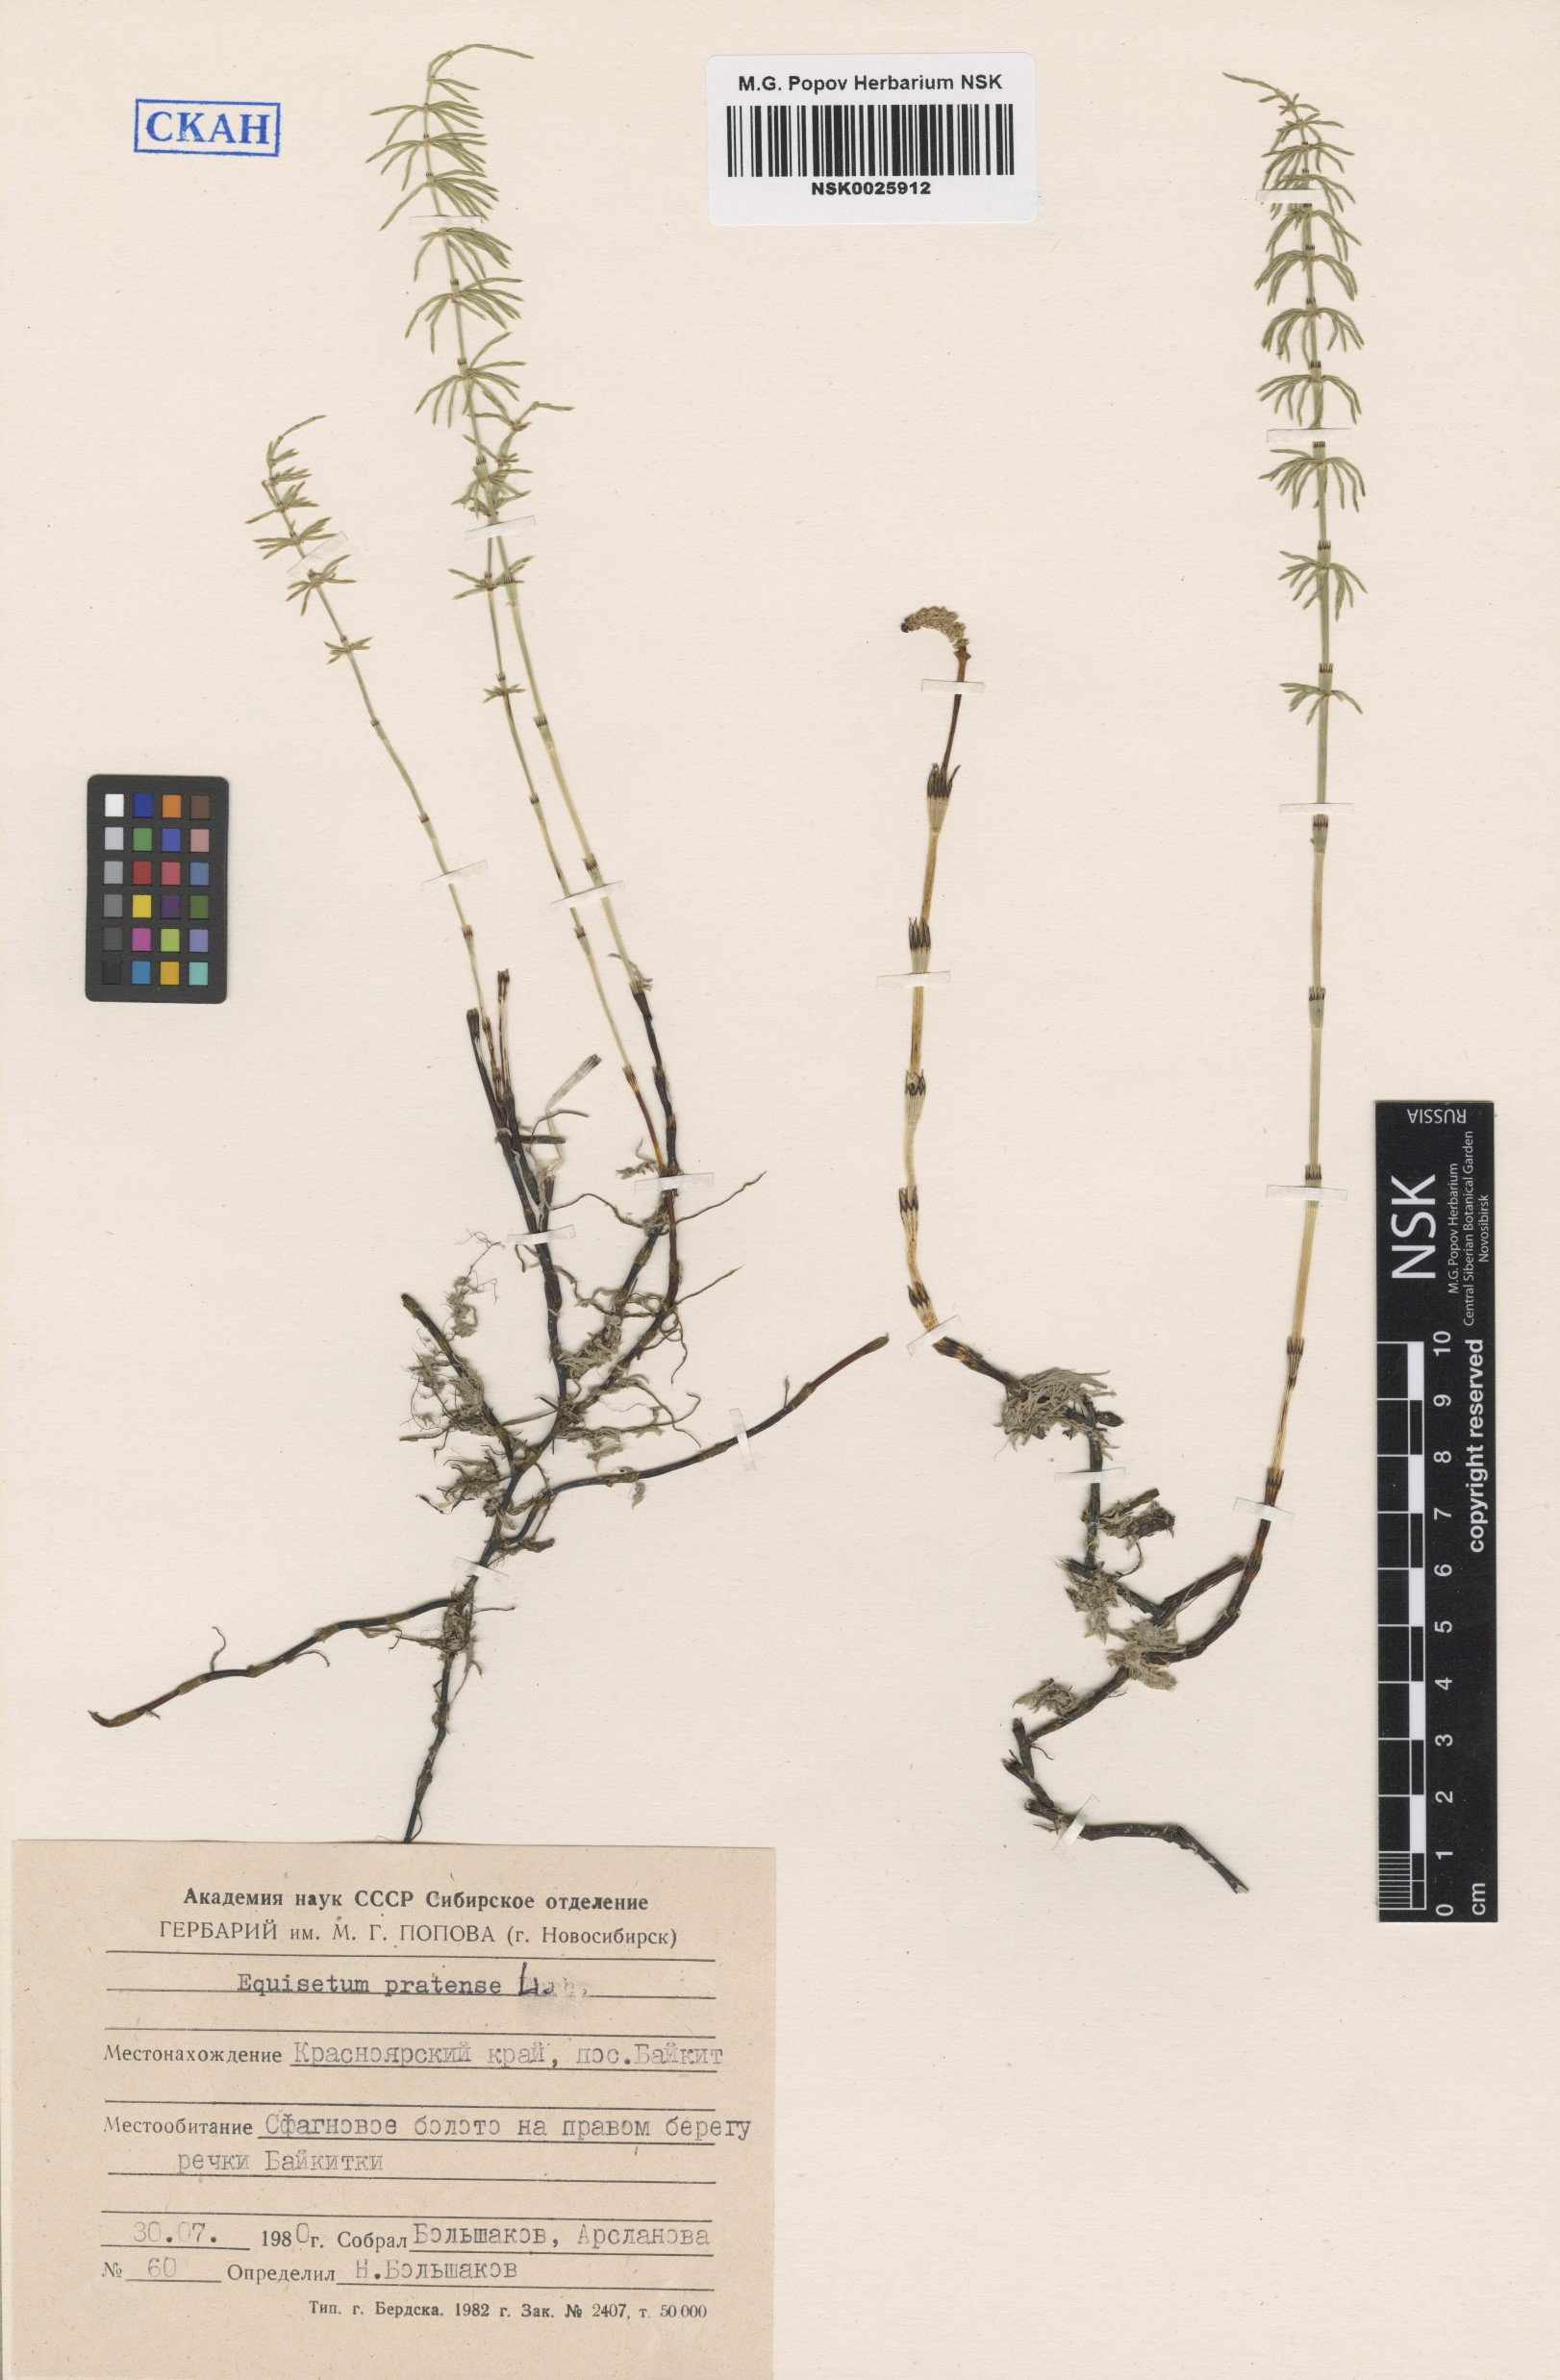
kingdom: Plantae
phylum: Tracheophyta
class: Polypodiopsida
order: Equisetales
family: Equisetaceae
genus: Equisetum
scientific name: Equisetum pratense
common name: Meadow horsetail
